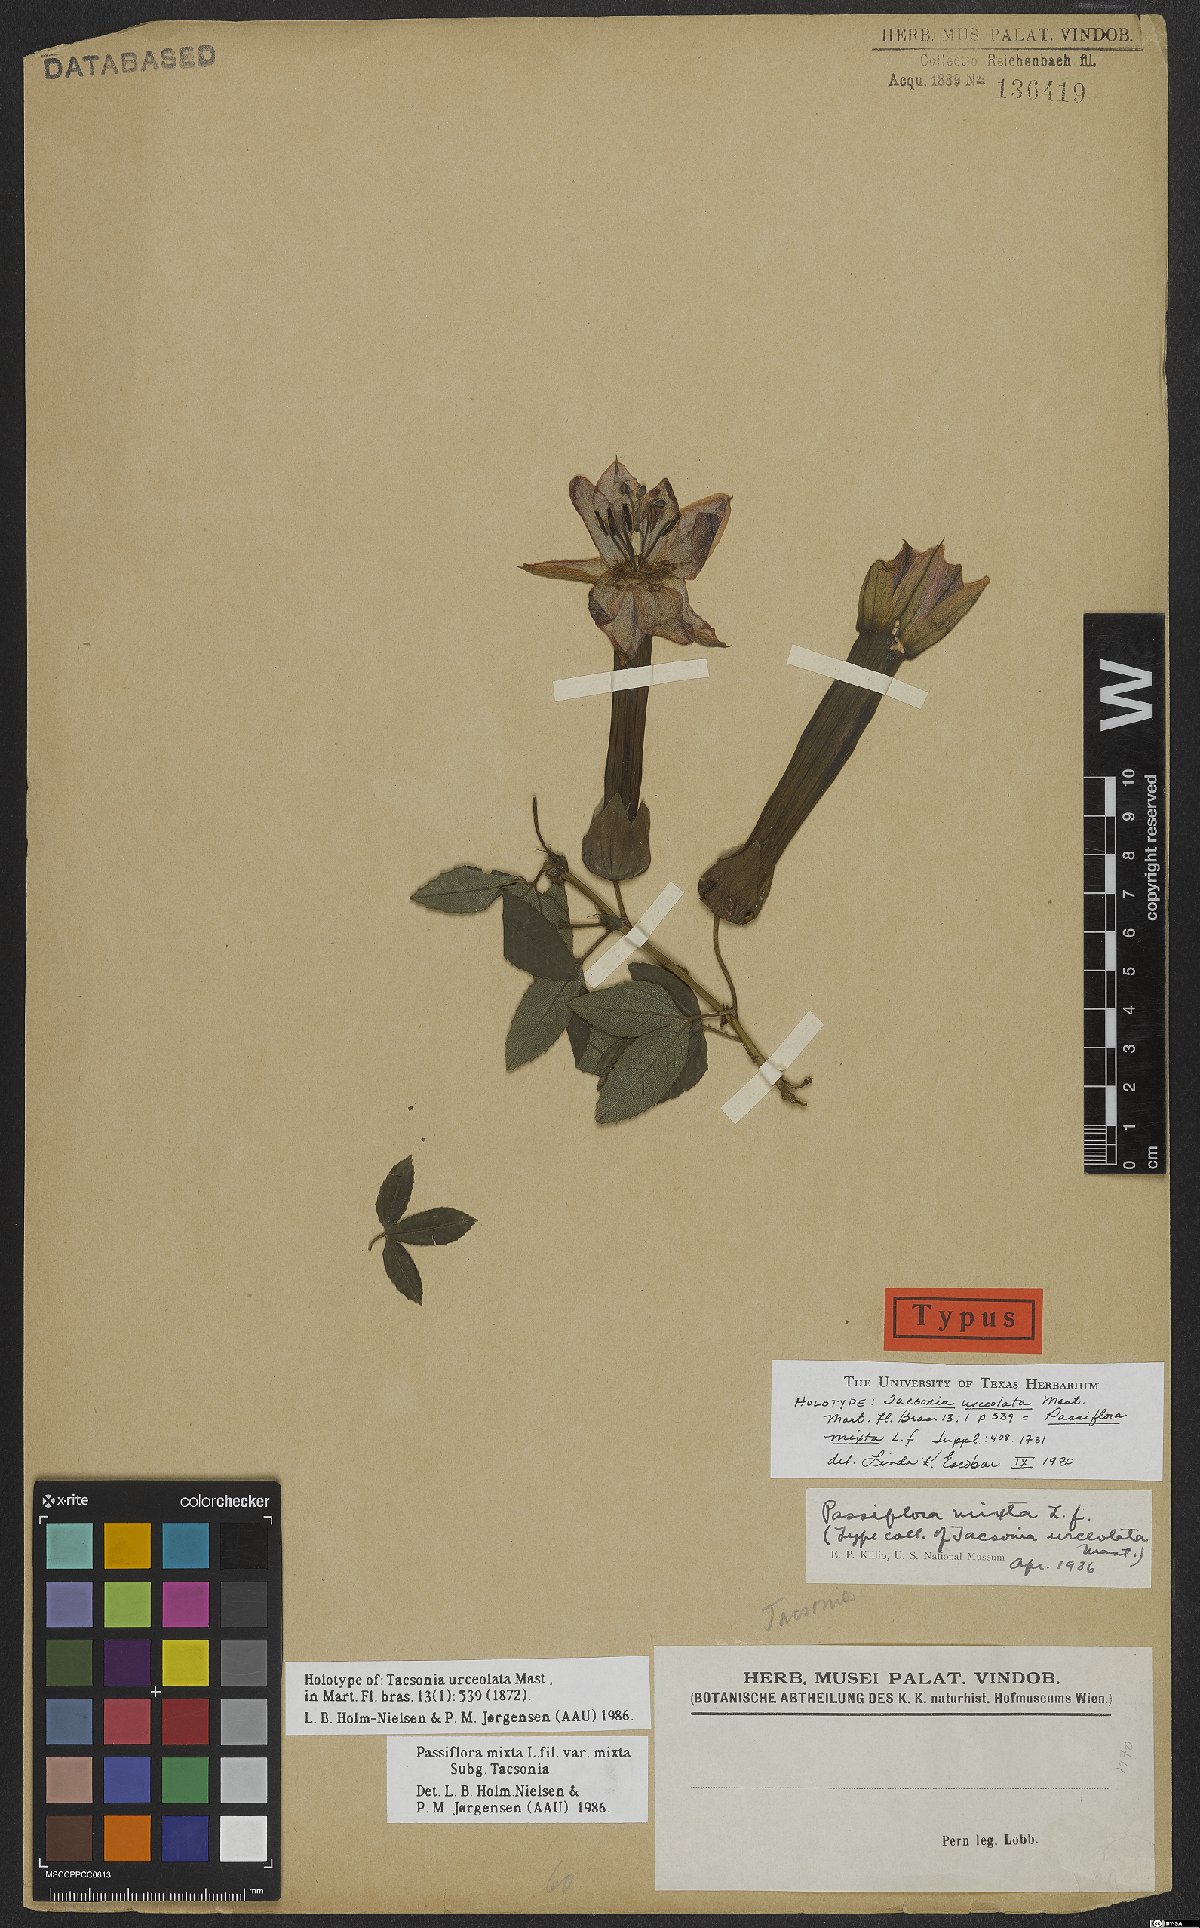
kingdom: Plantae
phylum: Tracheophyta
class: Magnoliopsida
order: Malpighiales
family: Passifloraceae
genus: Passiflora
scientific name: Passiflora mixta
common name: Passion flower
